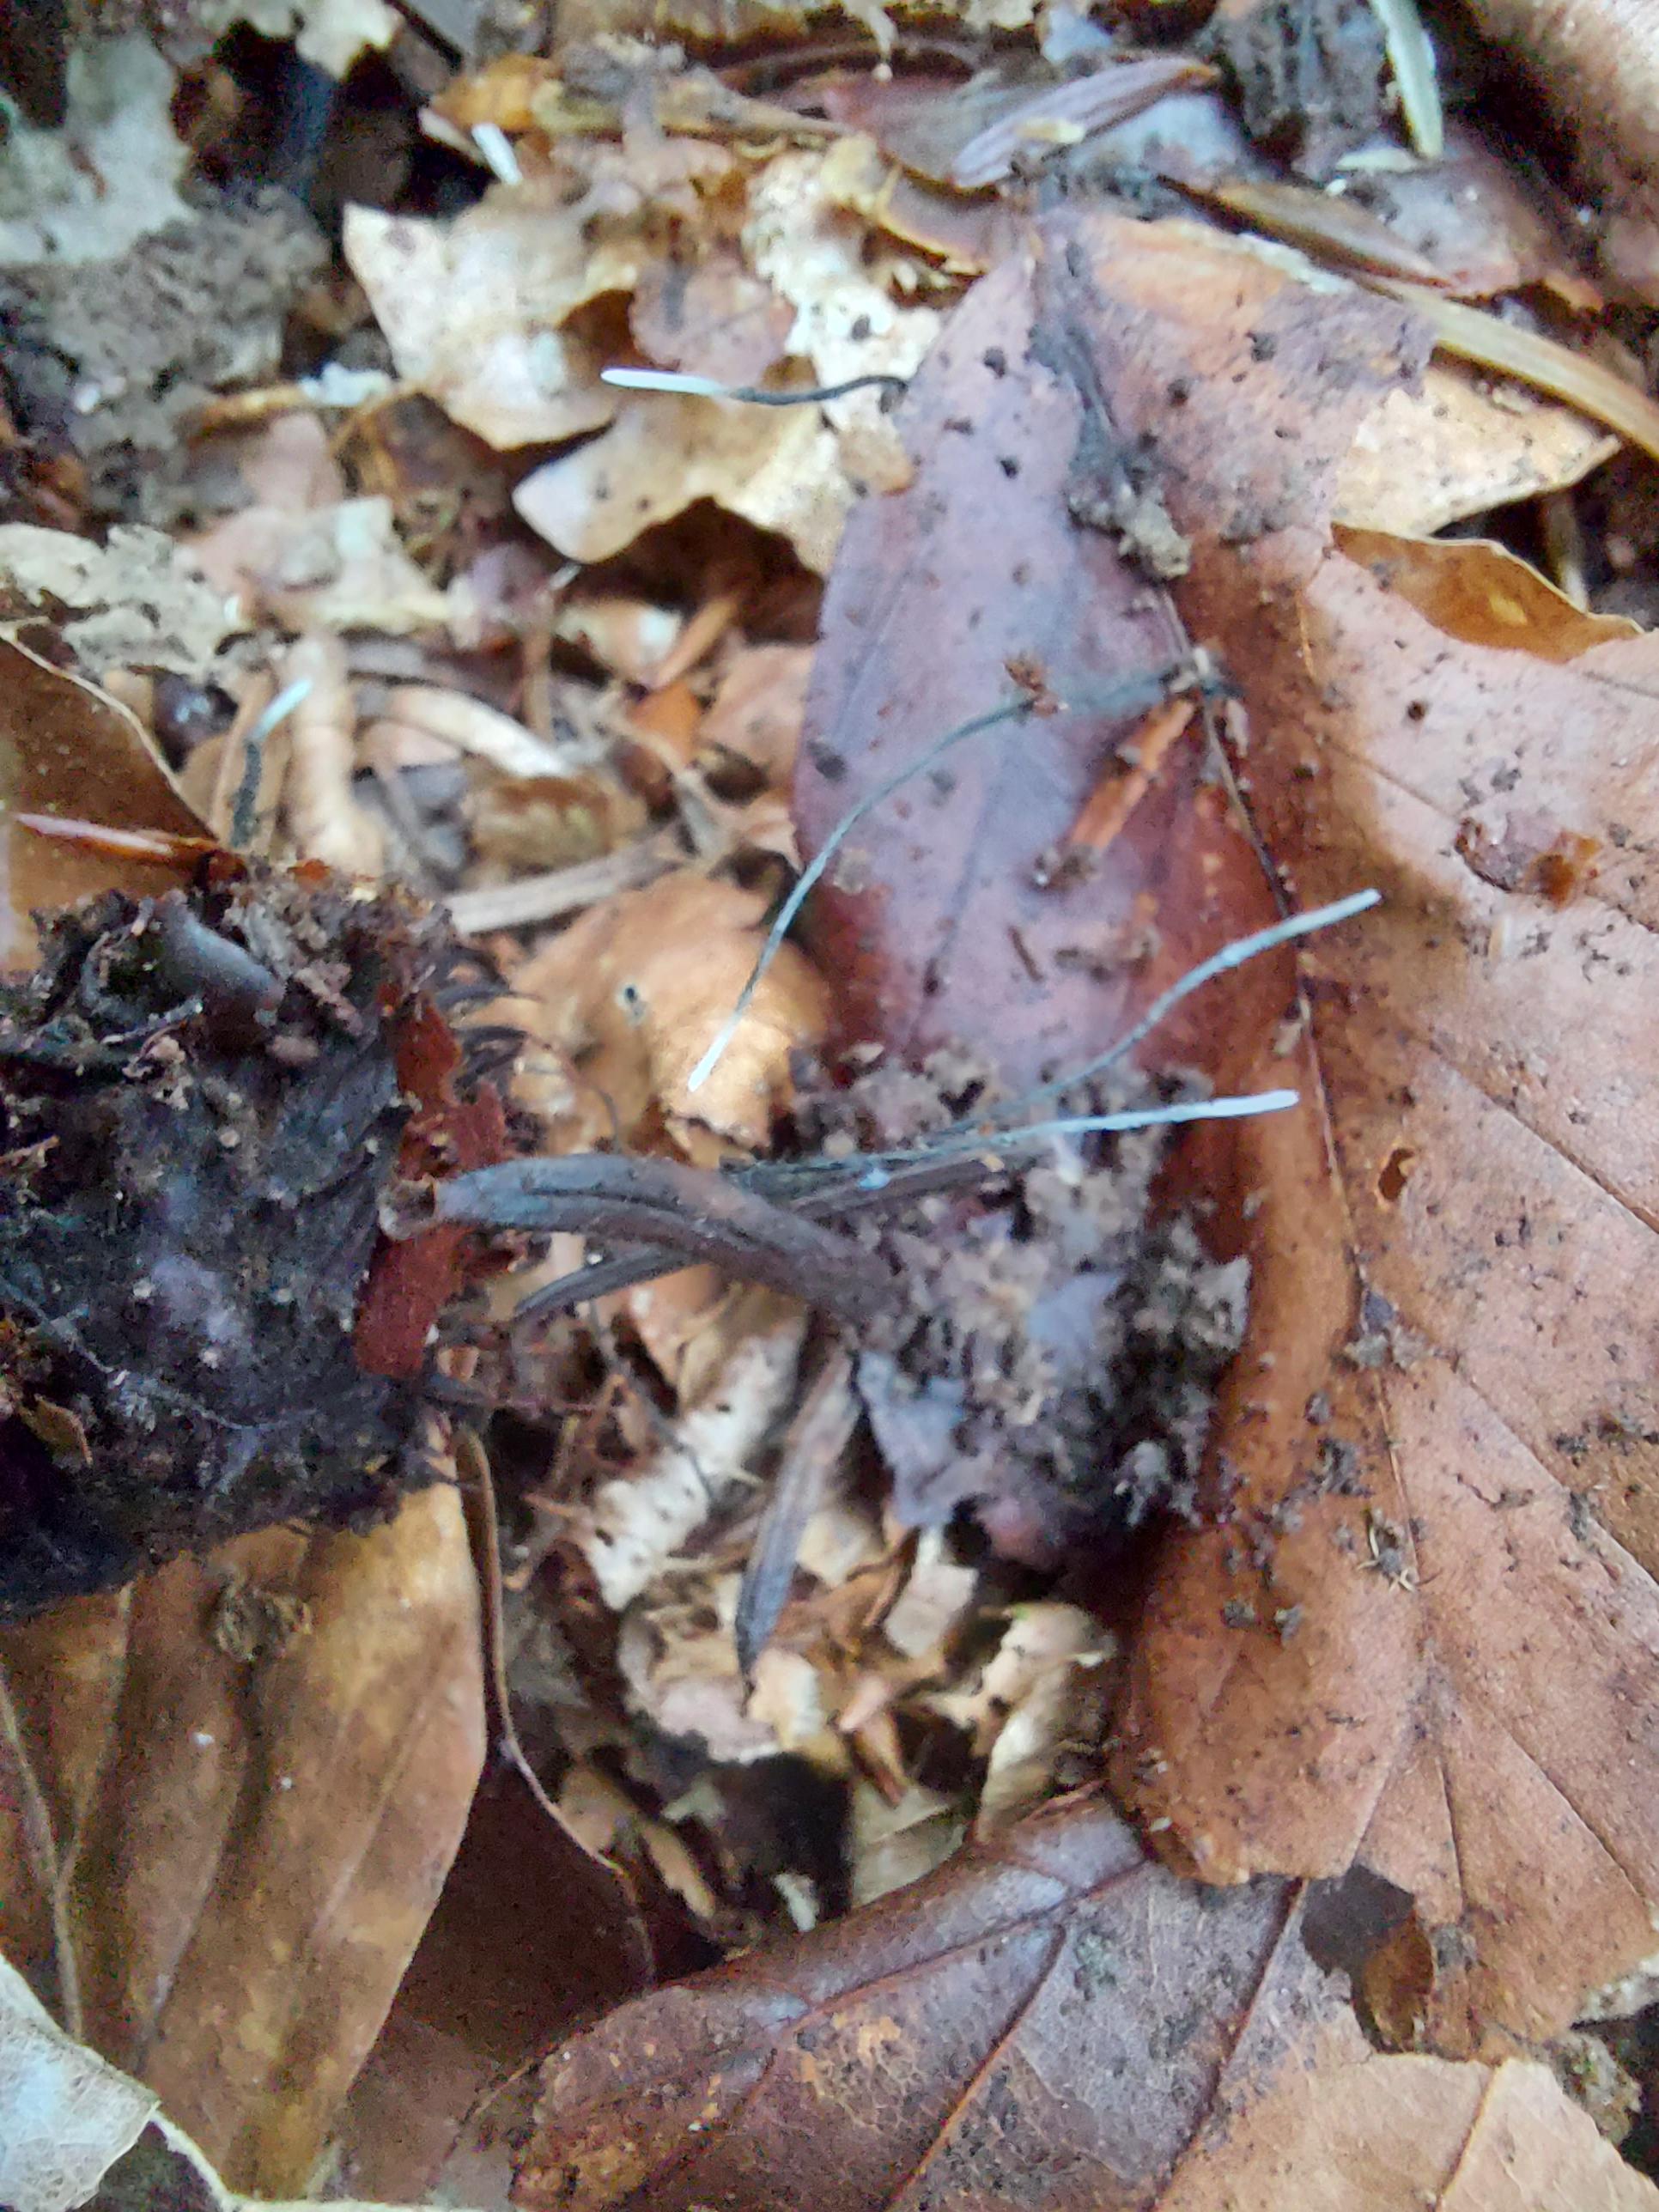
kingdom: Fungi
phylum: Ascomycota
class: Sordariomycetes
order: Xylariales
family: Xylariaceae
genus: Xylaria
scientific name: Xylaria carpophila
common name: bogskål-stødsvamp
